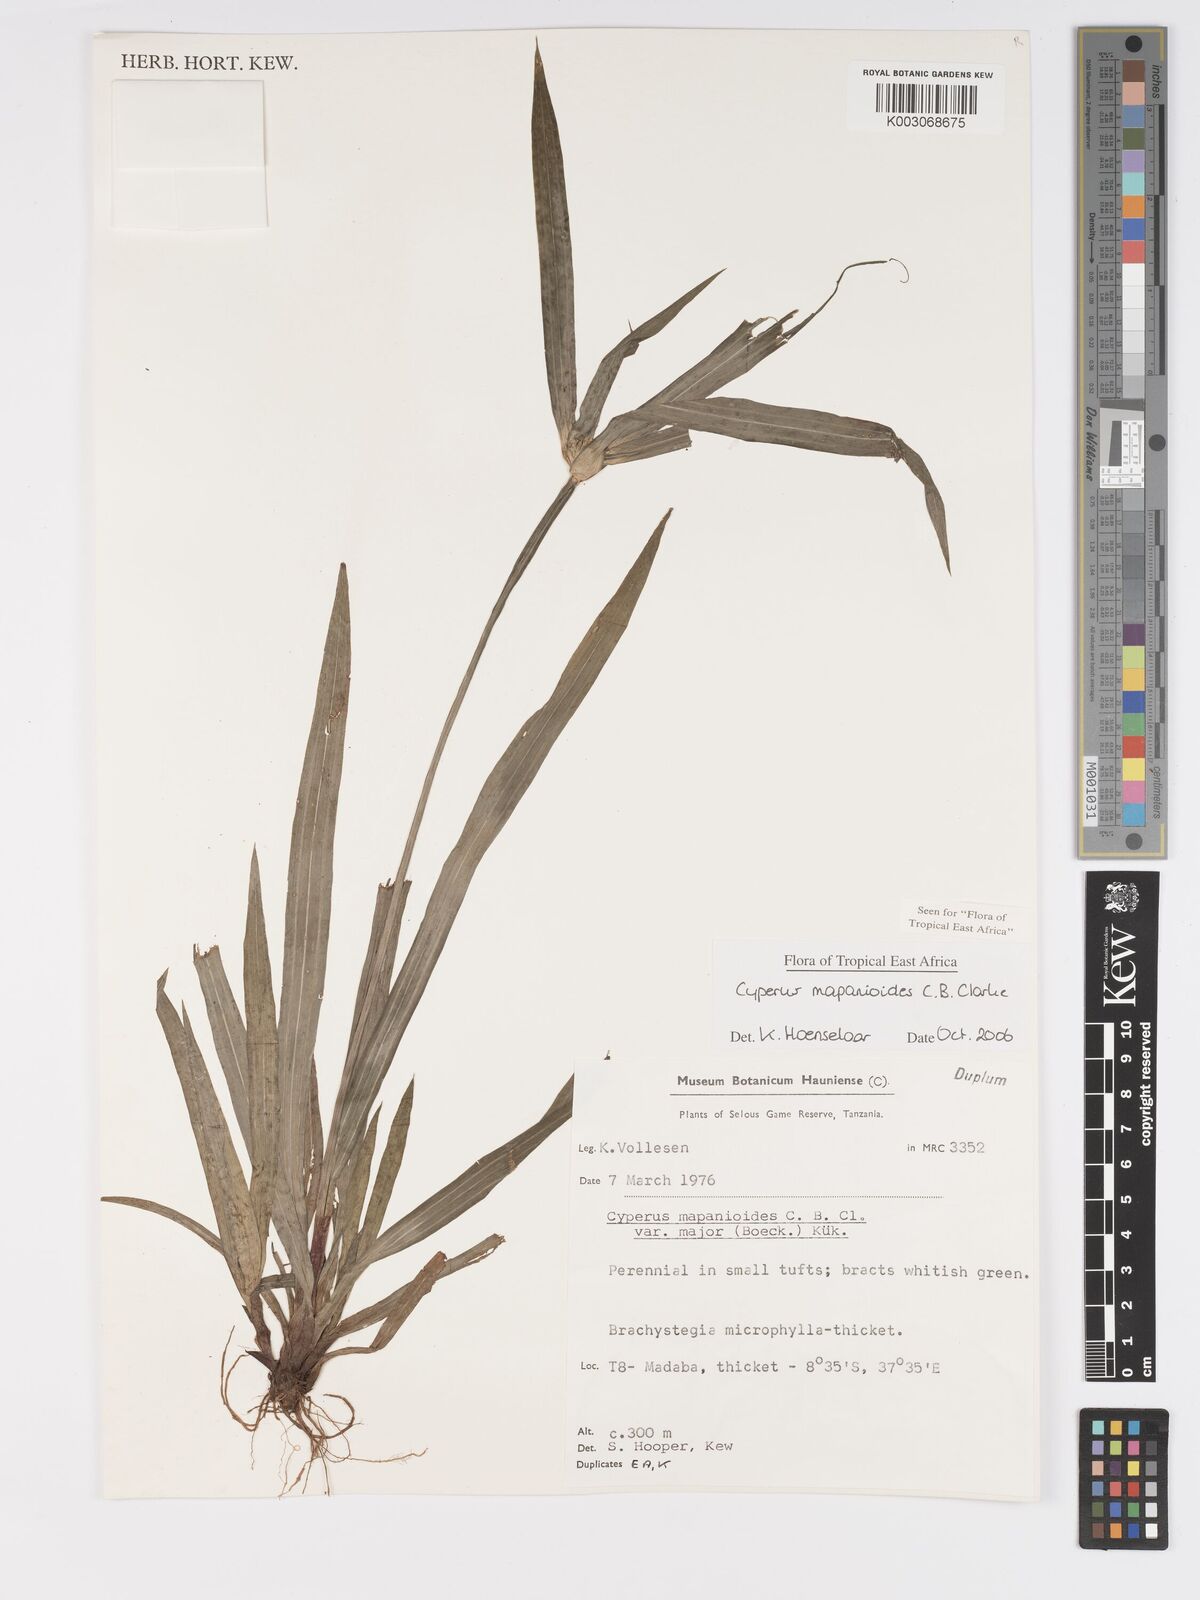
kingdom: Plantae
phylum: Tracheophyta
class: Liliopsida
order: Poales
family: Cyperaceae
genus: Cyperus
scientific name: Cyperus mapanioides
